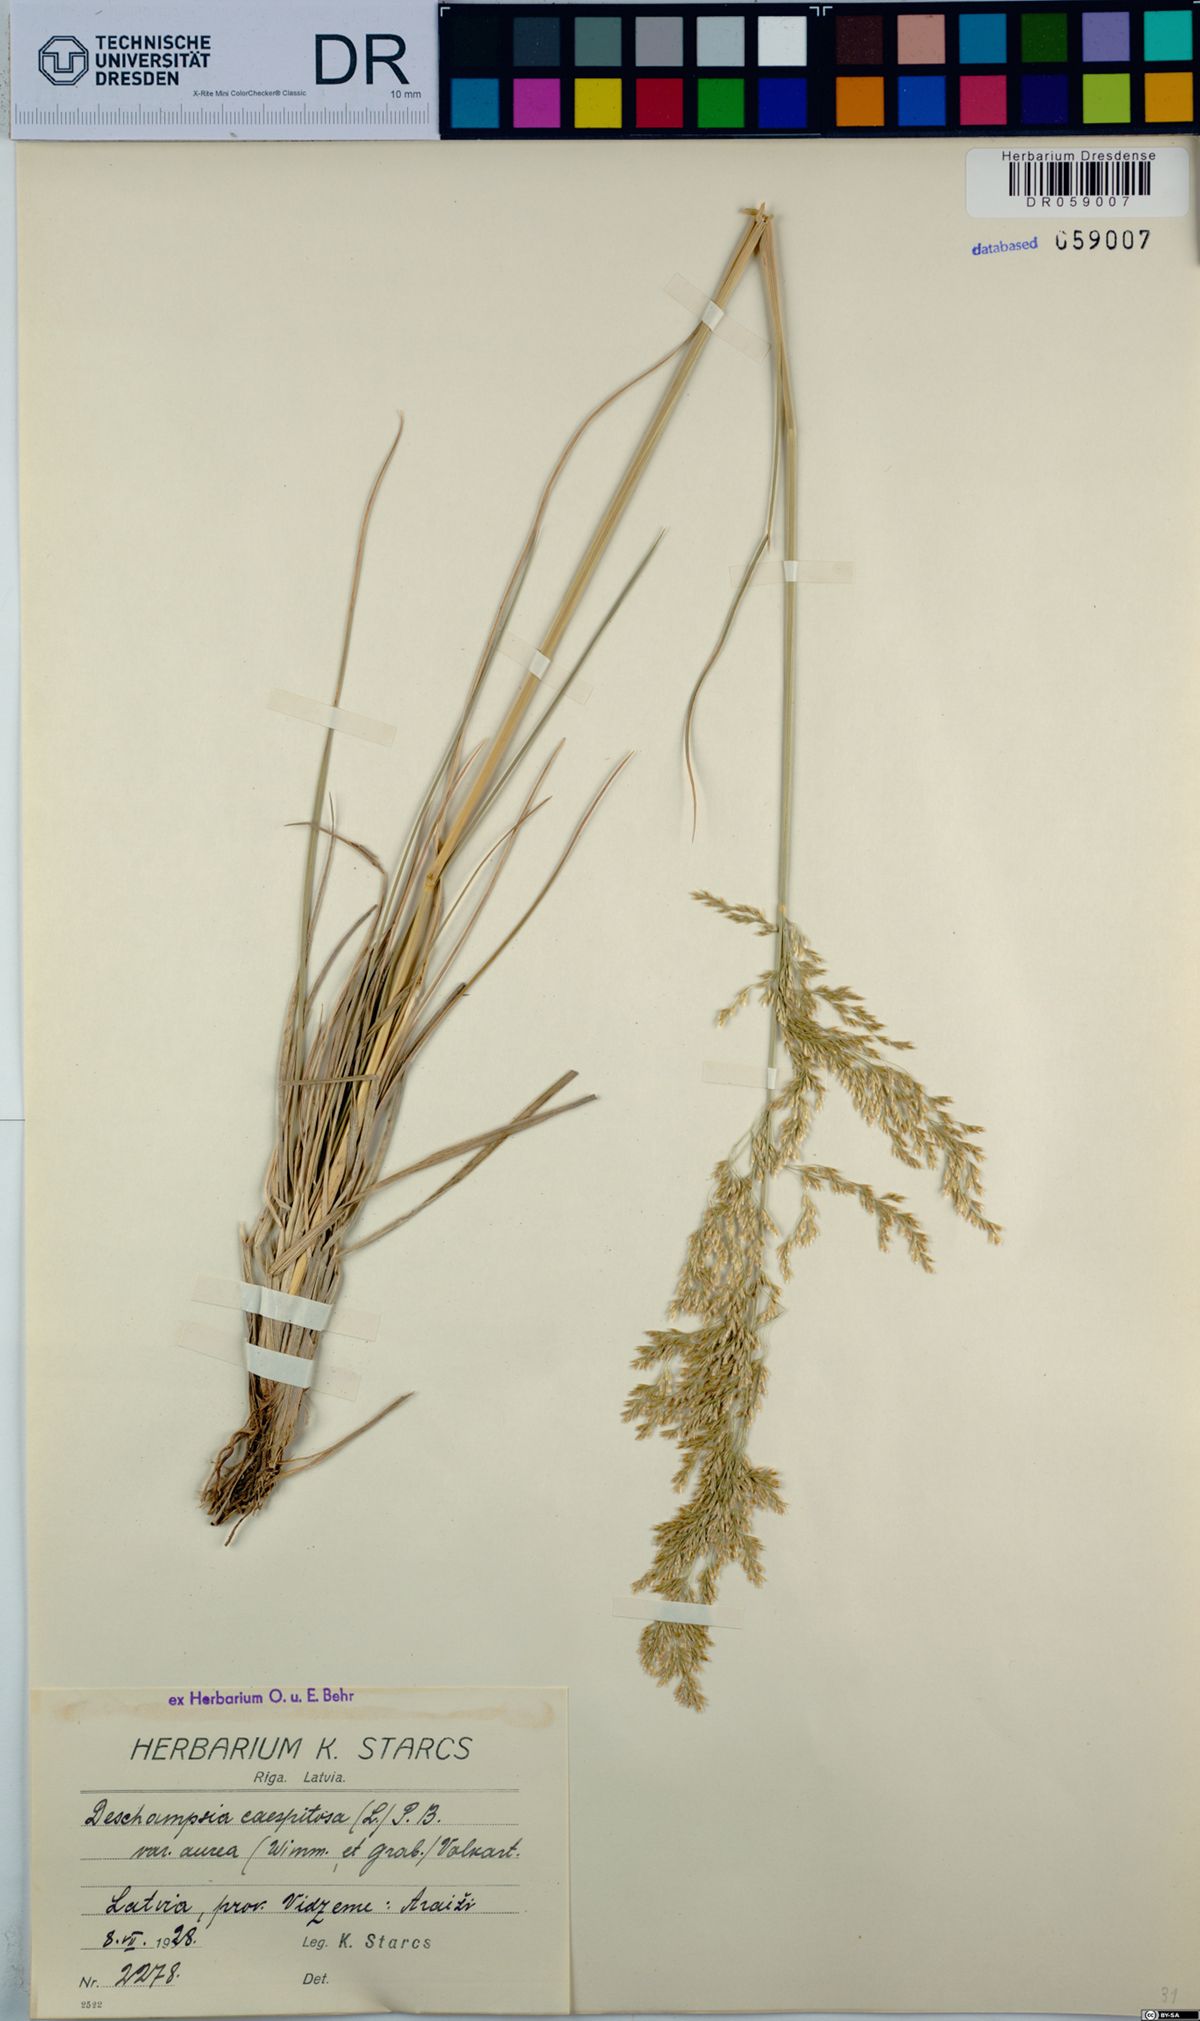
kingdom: Plantae
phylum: Tracheophyta
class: Liliopsida
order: Poales
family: Poaceae
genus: Deschampsia
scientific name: Deschampsia cespitosa
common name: Tufted hair-grass
